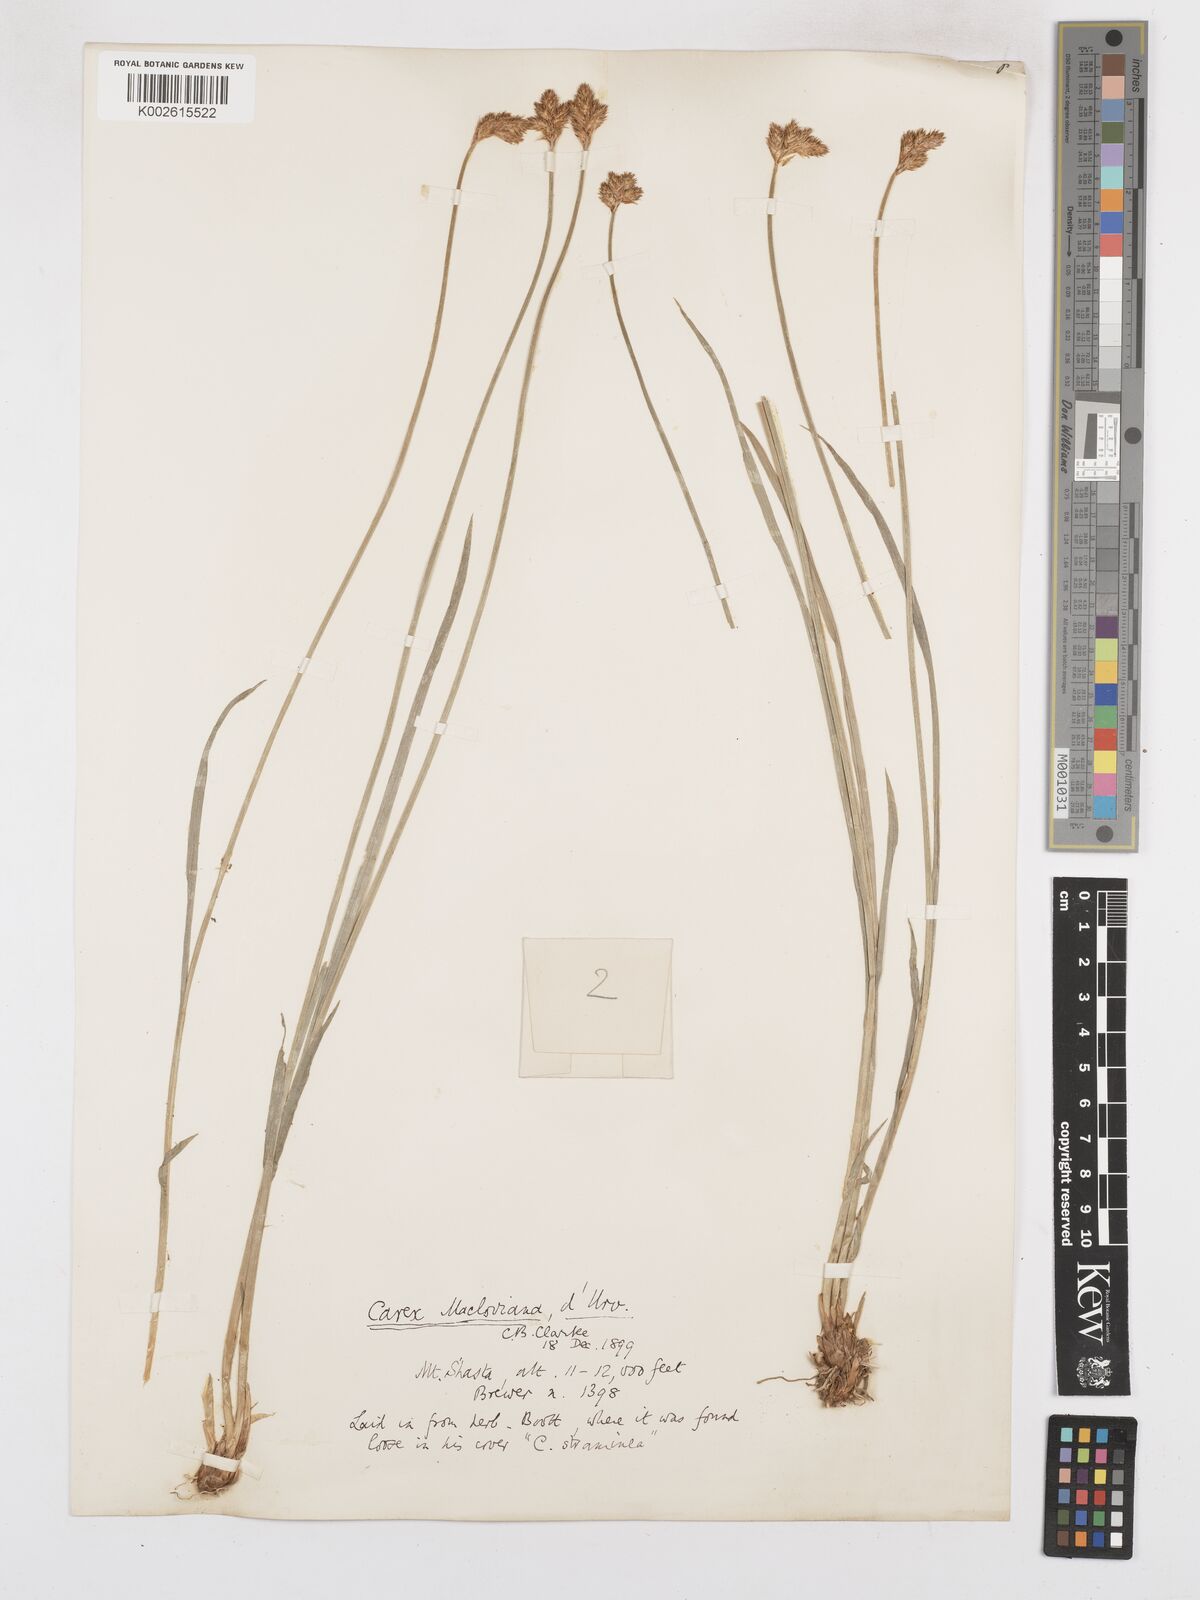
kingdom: Plantae
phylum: Tracheophyta
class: Liliopsida
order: Poales
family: Cyperaceae
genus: Carex
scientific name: Carex macloviana
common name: Falkland island sedge
